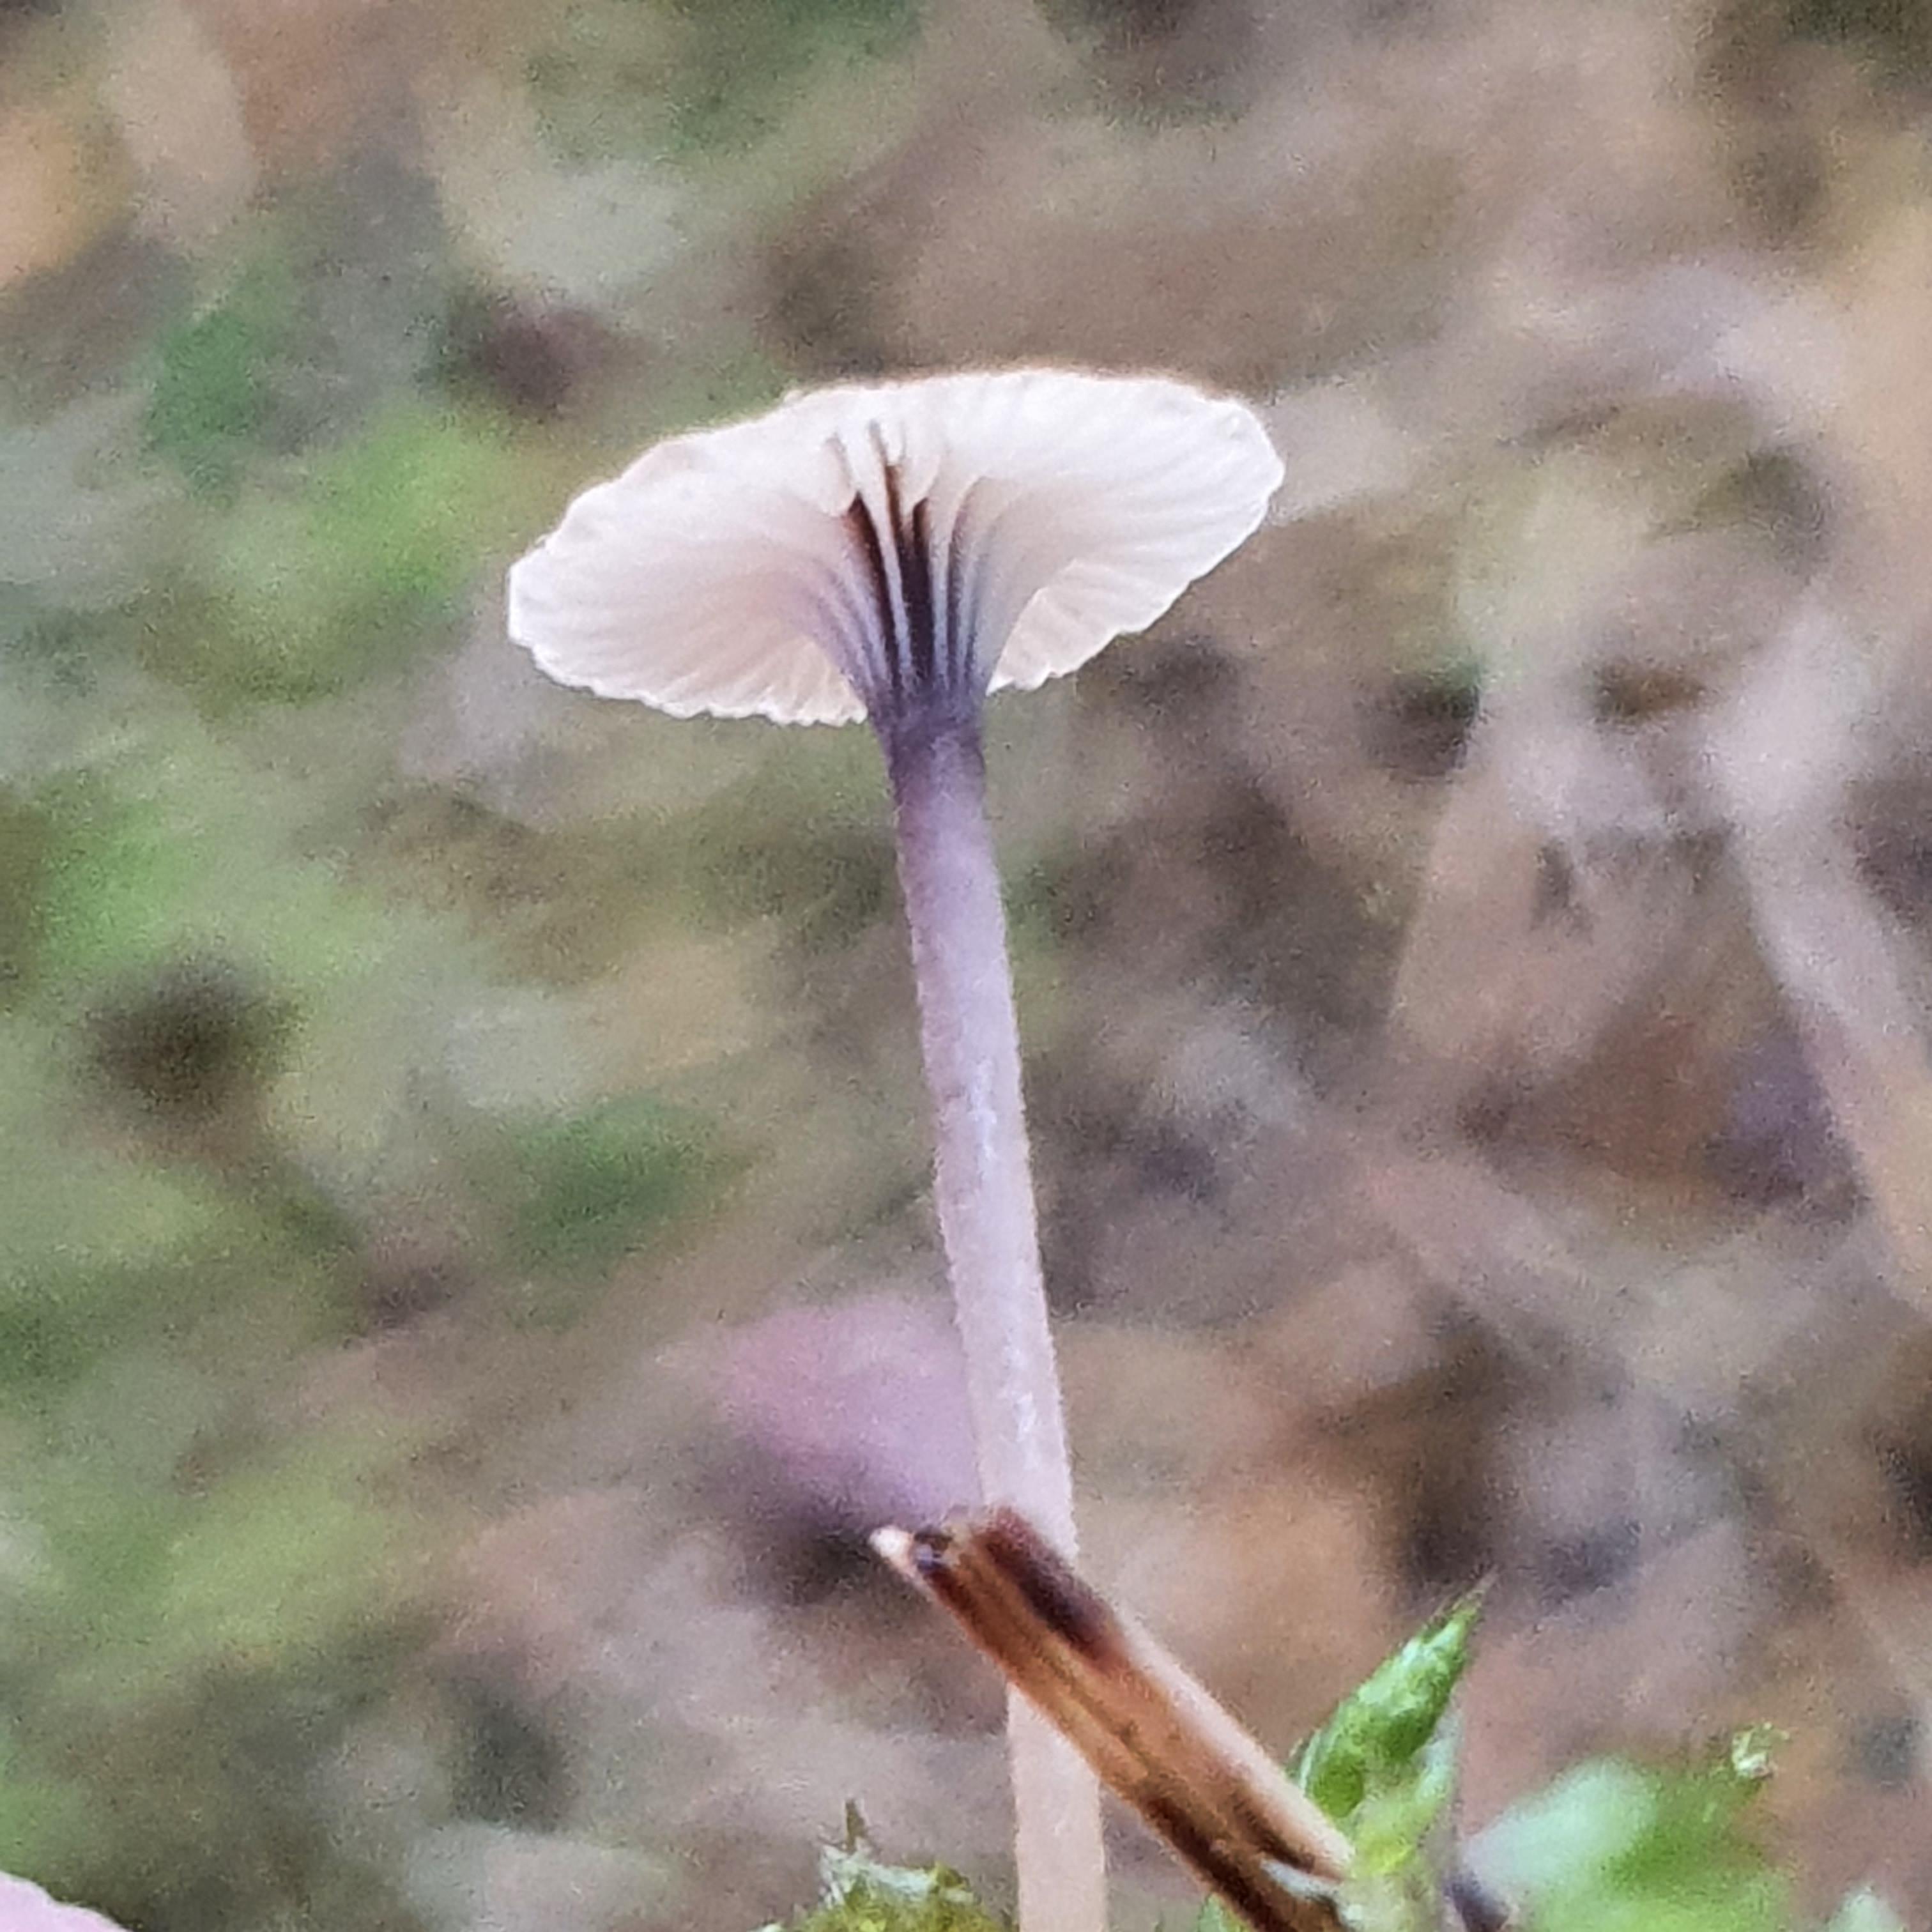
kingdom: Fungi
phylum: Basidiomycota
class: Agaricomycetes
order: Hymenochaetales
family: Rickenellaceae
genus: Rickenella
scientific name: Rickenella swartzii
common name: finstokket mosnavlehat
